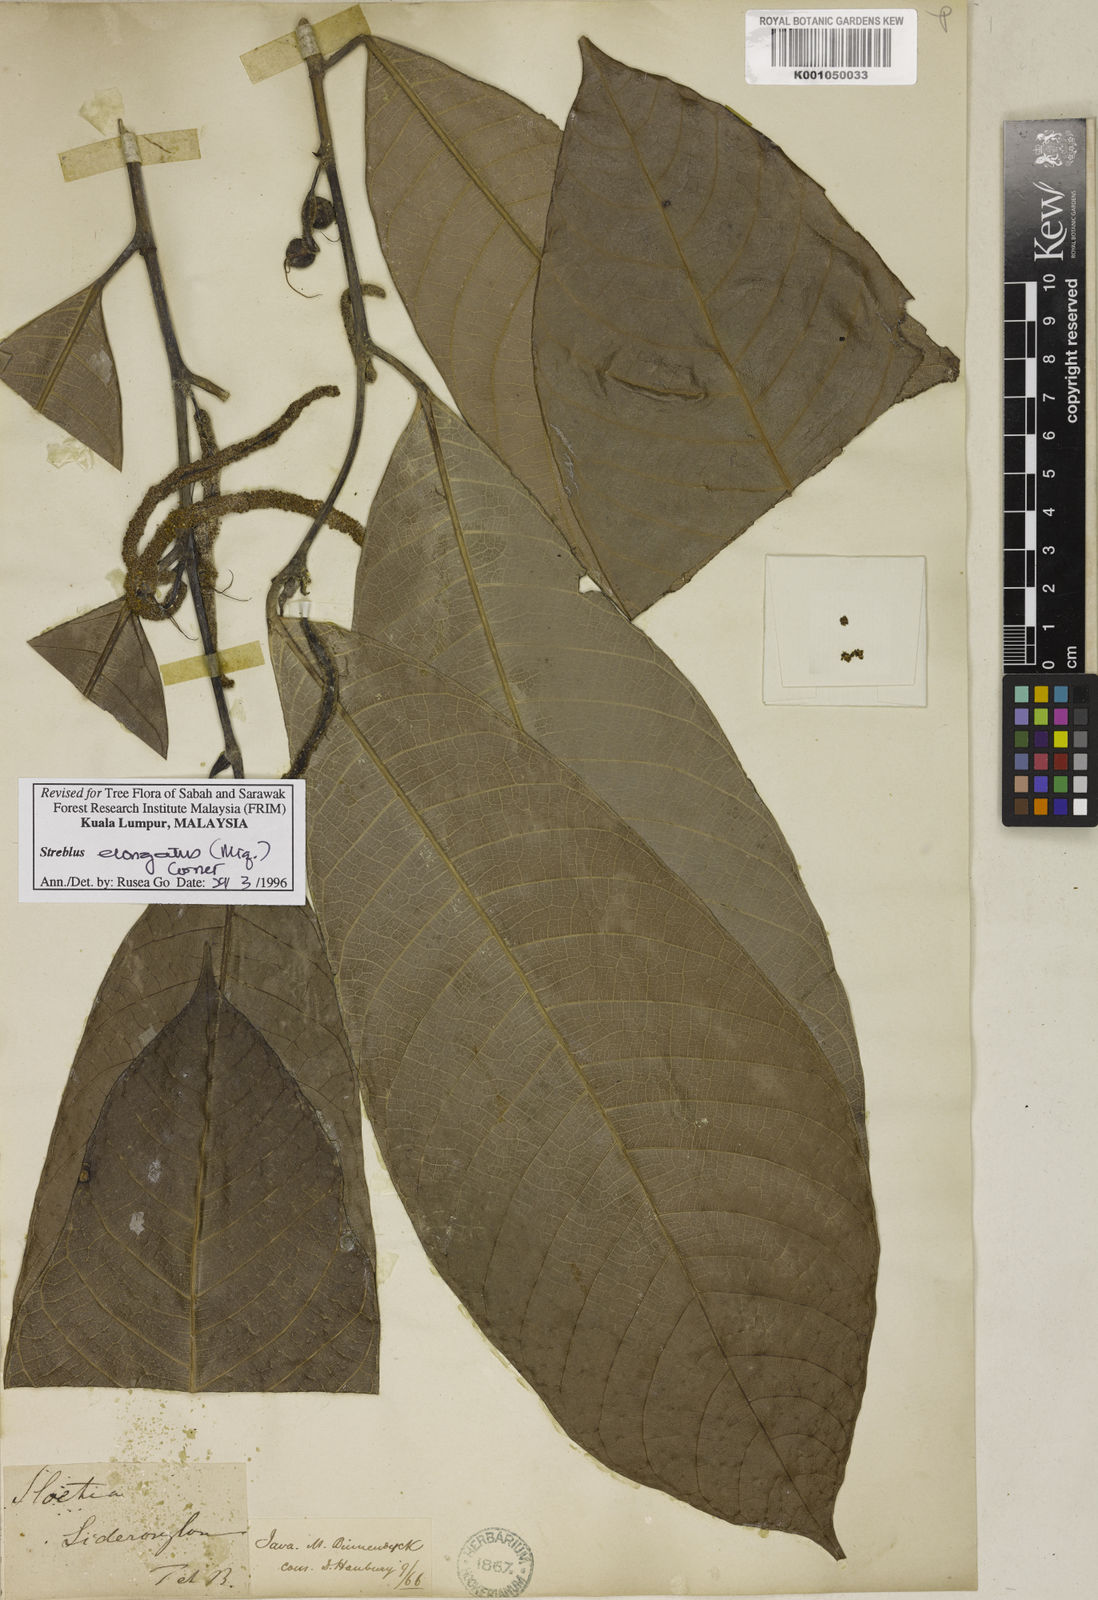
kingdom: Plantae
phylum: Tracheophyta
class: Magnoliopsida
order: Rosales
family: Moraceae
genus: Sloetia
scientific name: Sloetia elongata
